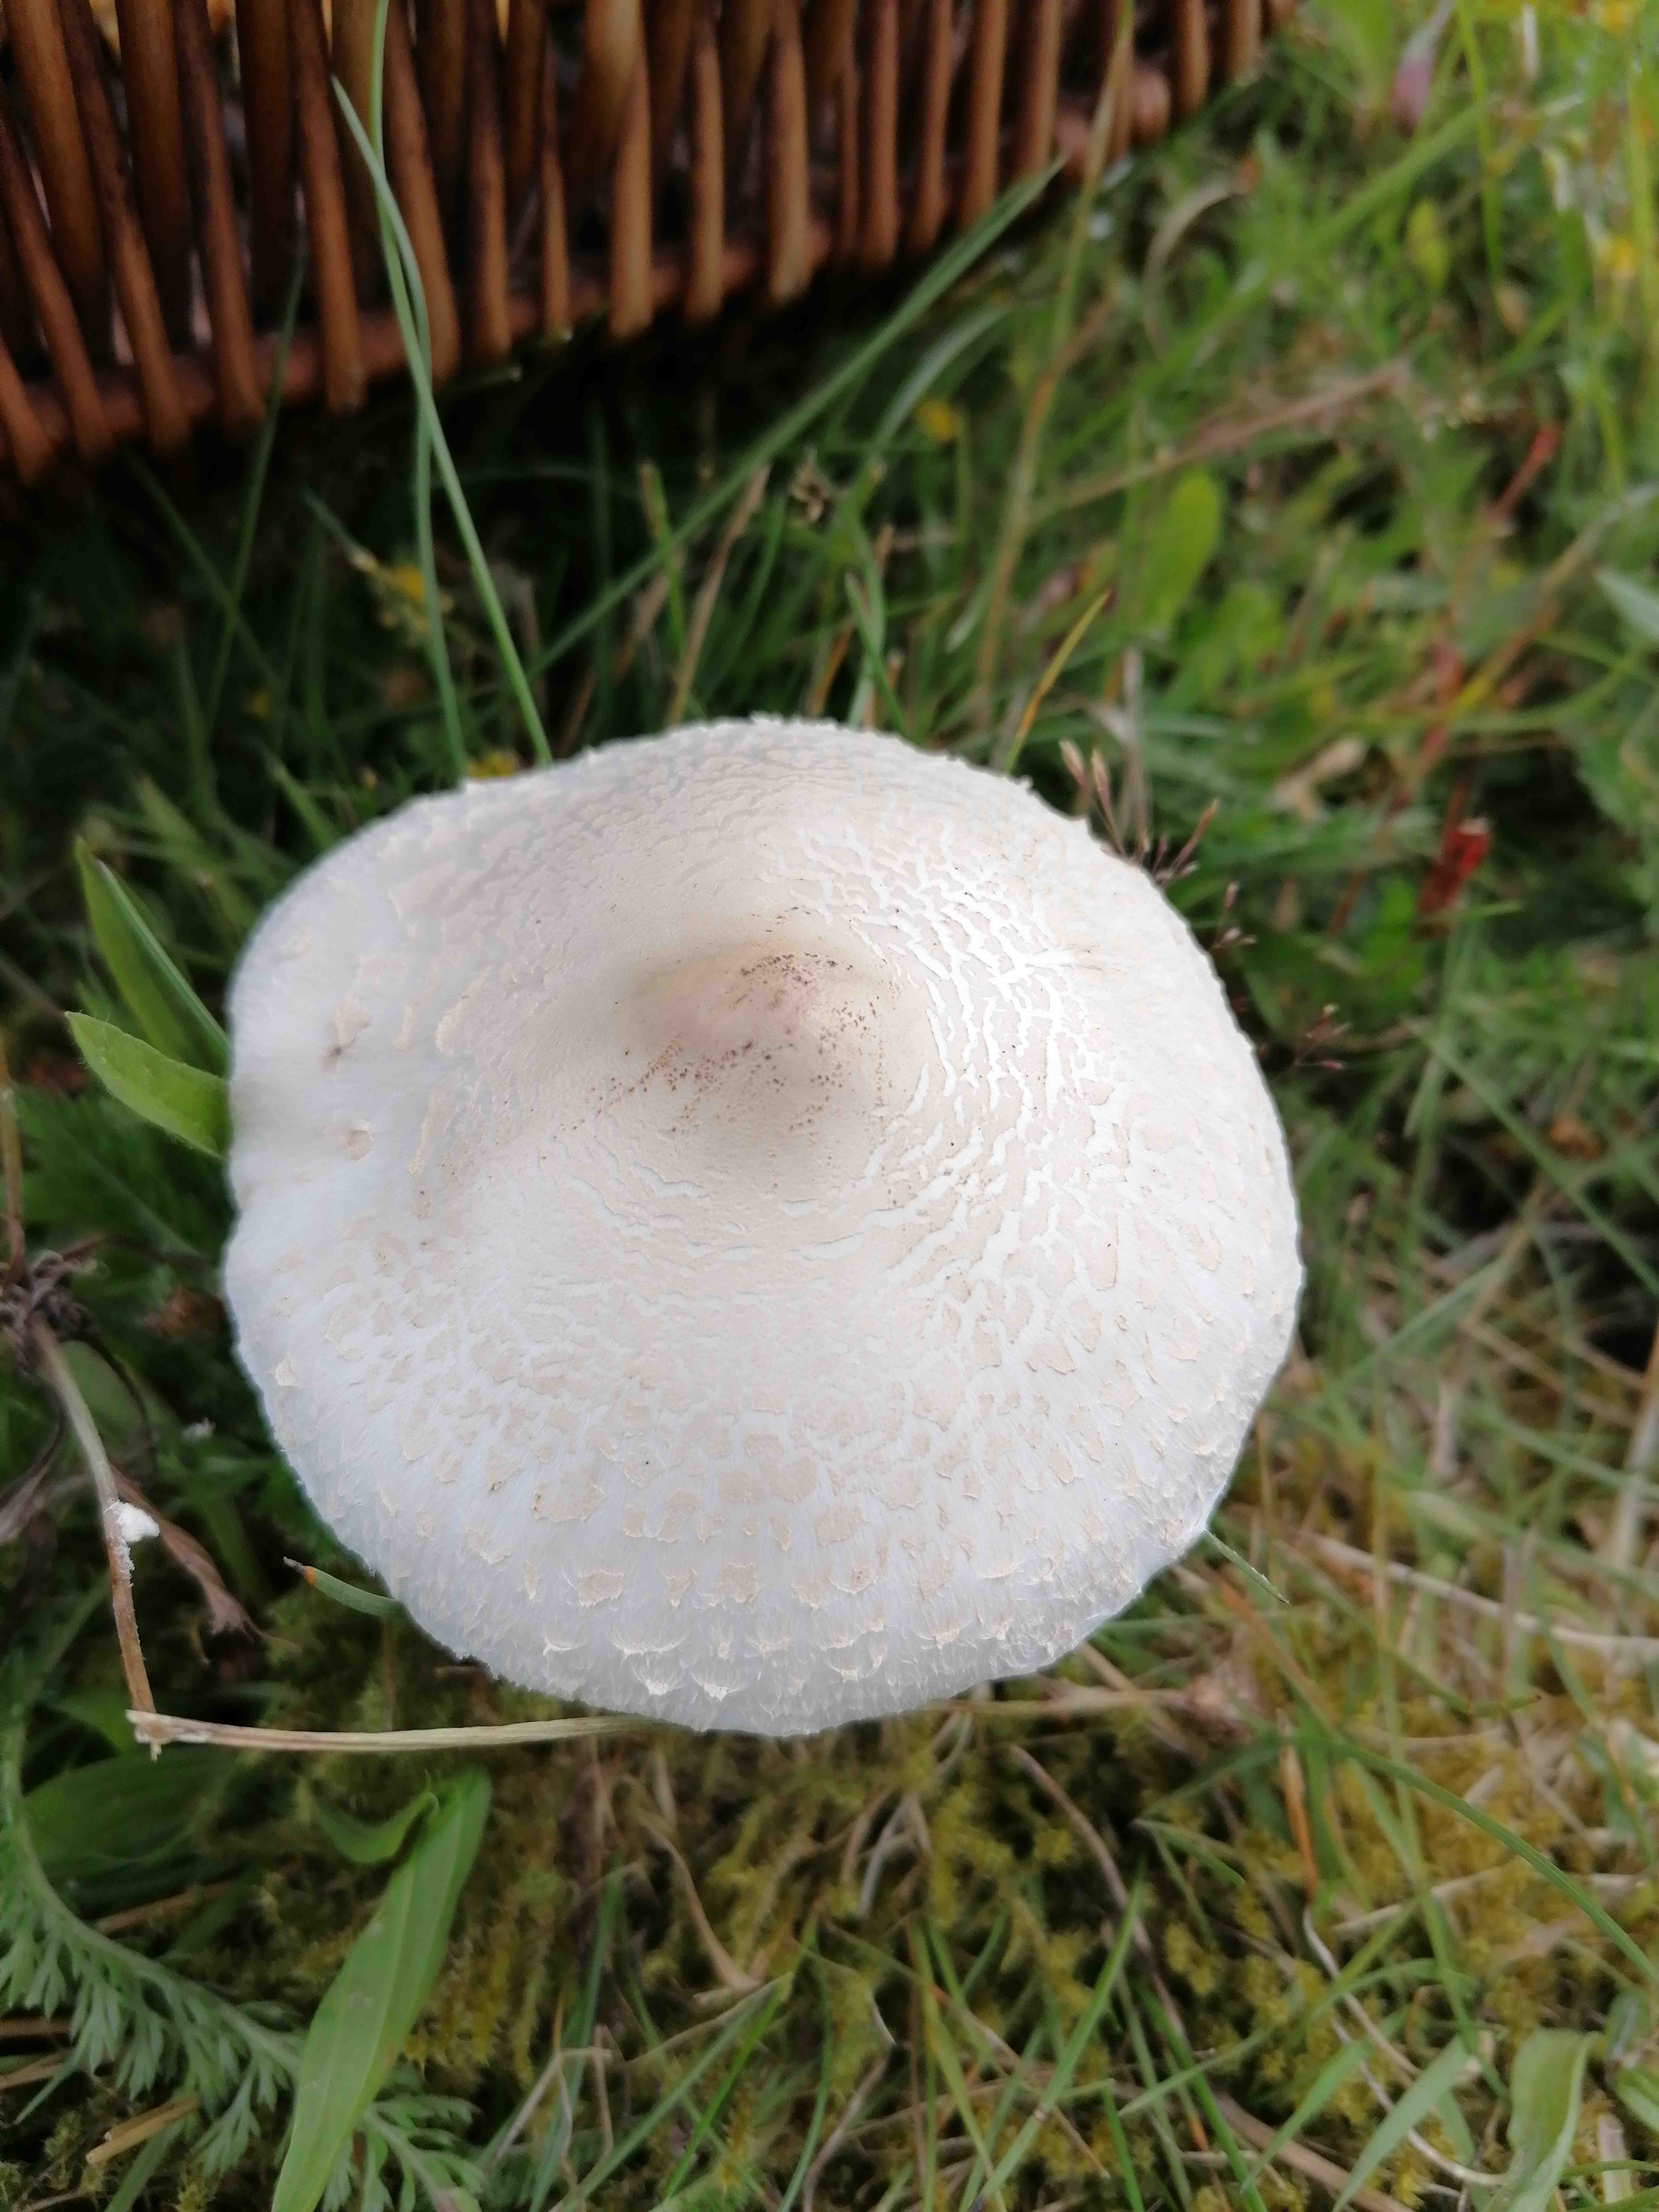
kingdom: Fungi
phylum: Basidiomycota
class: Agaricomycetes
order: Agaricales
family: Agaricaceae
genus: Macrolepiota
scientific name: Macrolepiota excoriata
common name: mark-kæmpeparasolhat
